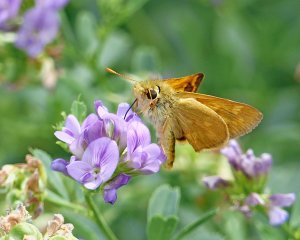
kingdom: Animalia
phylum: Arthropoda
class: Insecta
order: Lepidoptera
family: Hesperiidae
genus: Ochlodes
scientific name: Ochlodes sylvanoides
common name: Woodland Skipper
